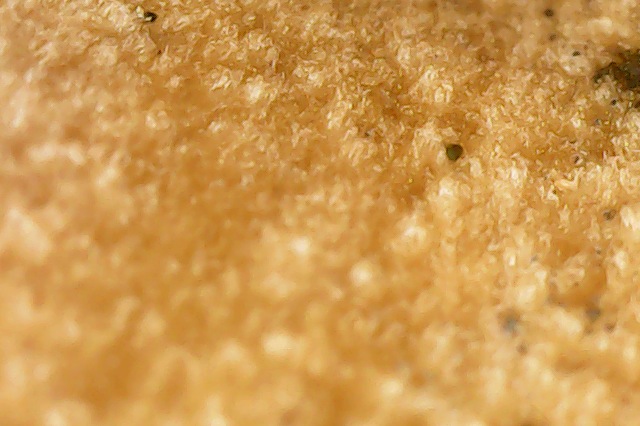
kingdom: Fungi
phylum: Basidiomycota
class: Agaricomycetes
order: Agaricales
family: Tricholomataceae
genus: Infundibulicybe
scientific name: Infundibulicybe squamulosa
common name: småskællet tragthat
